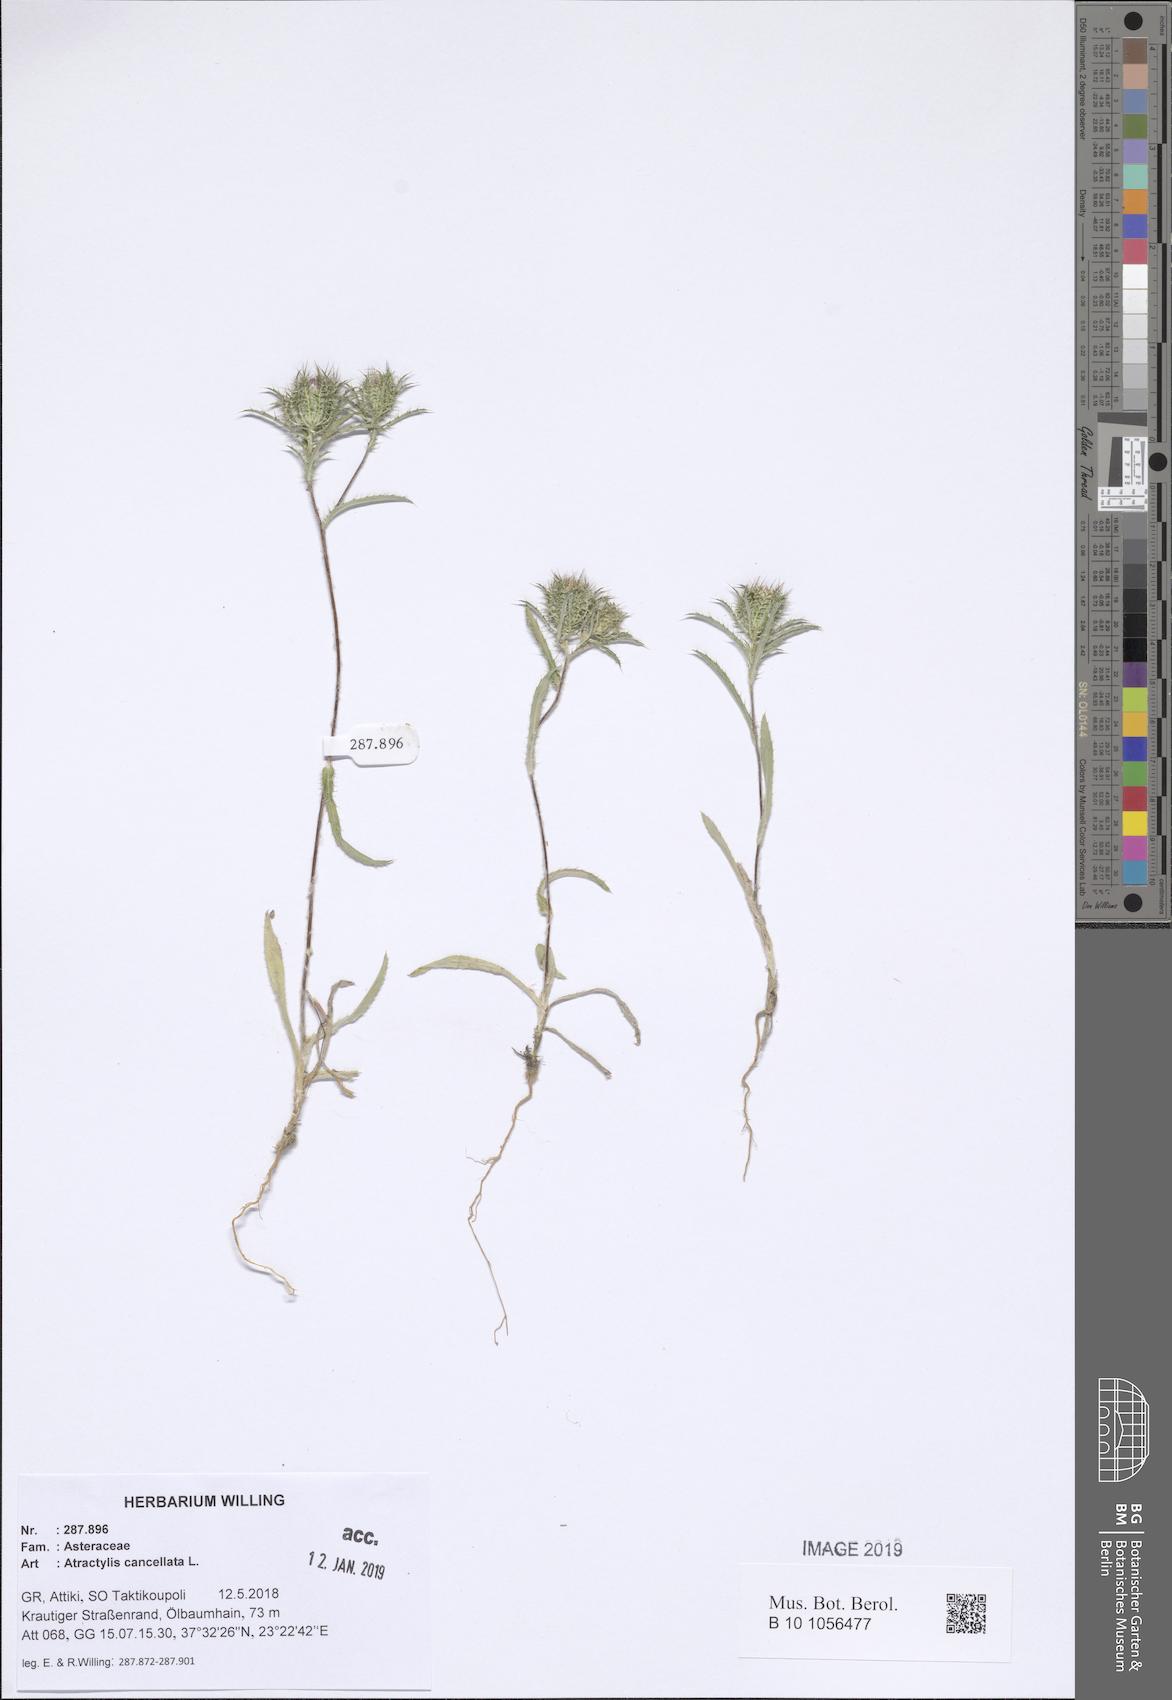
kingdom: Plantae
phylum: Tracheophyta
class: Magnoliopsida
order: Asterales
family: Asteraceae
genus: Atractylis
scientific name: Atractylis cancellata
